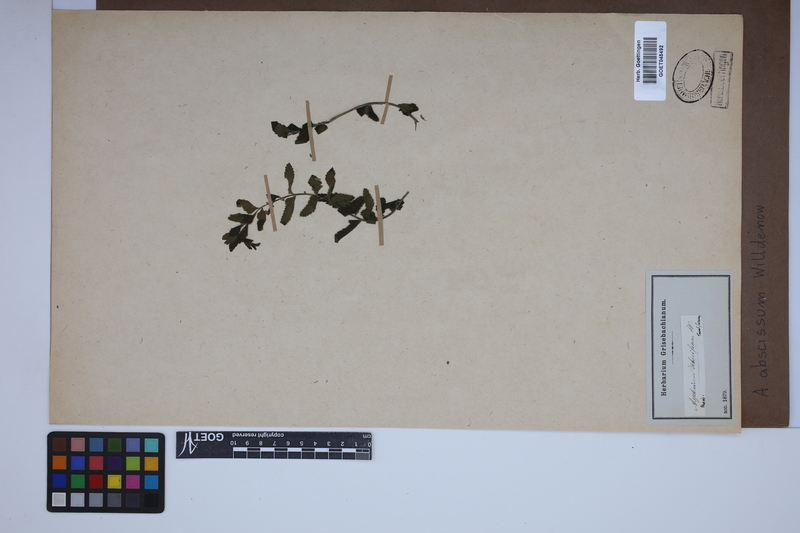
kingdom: Plantae
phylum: Tracheophyta
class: Polypodiopsida
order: Polypodiales
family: Aspleniaceae
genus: Asplenium
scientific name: Asplenium abscissum
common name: Cutleaf spleenwort
